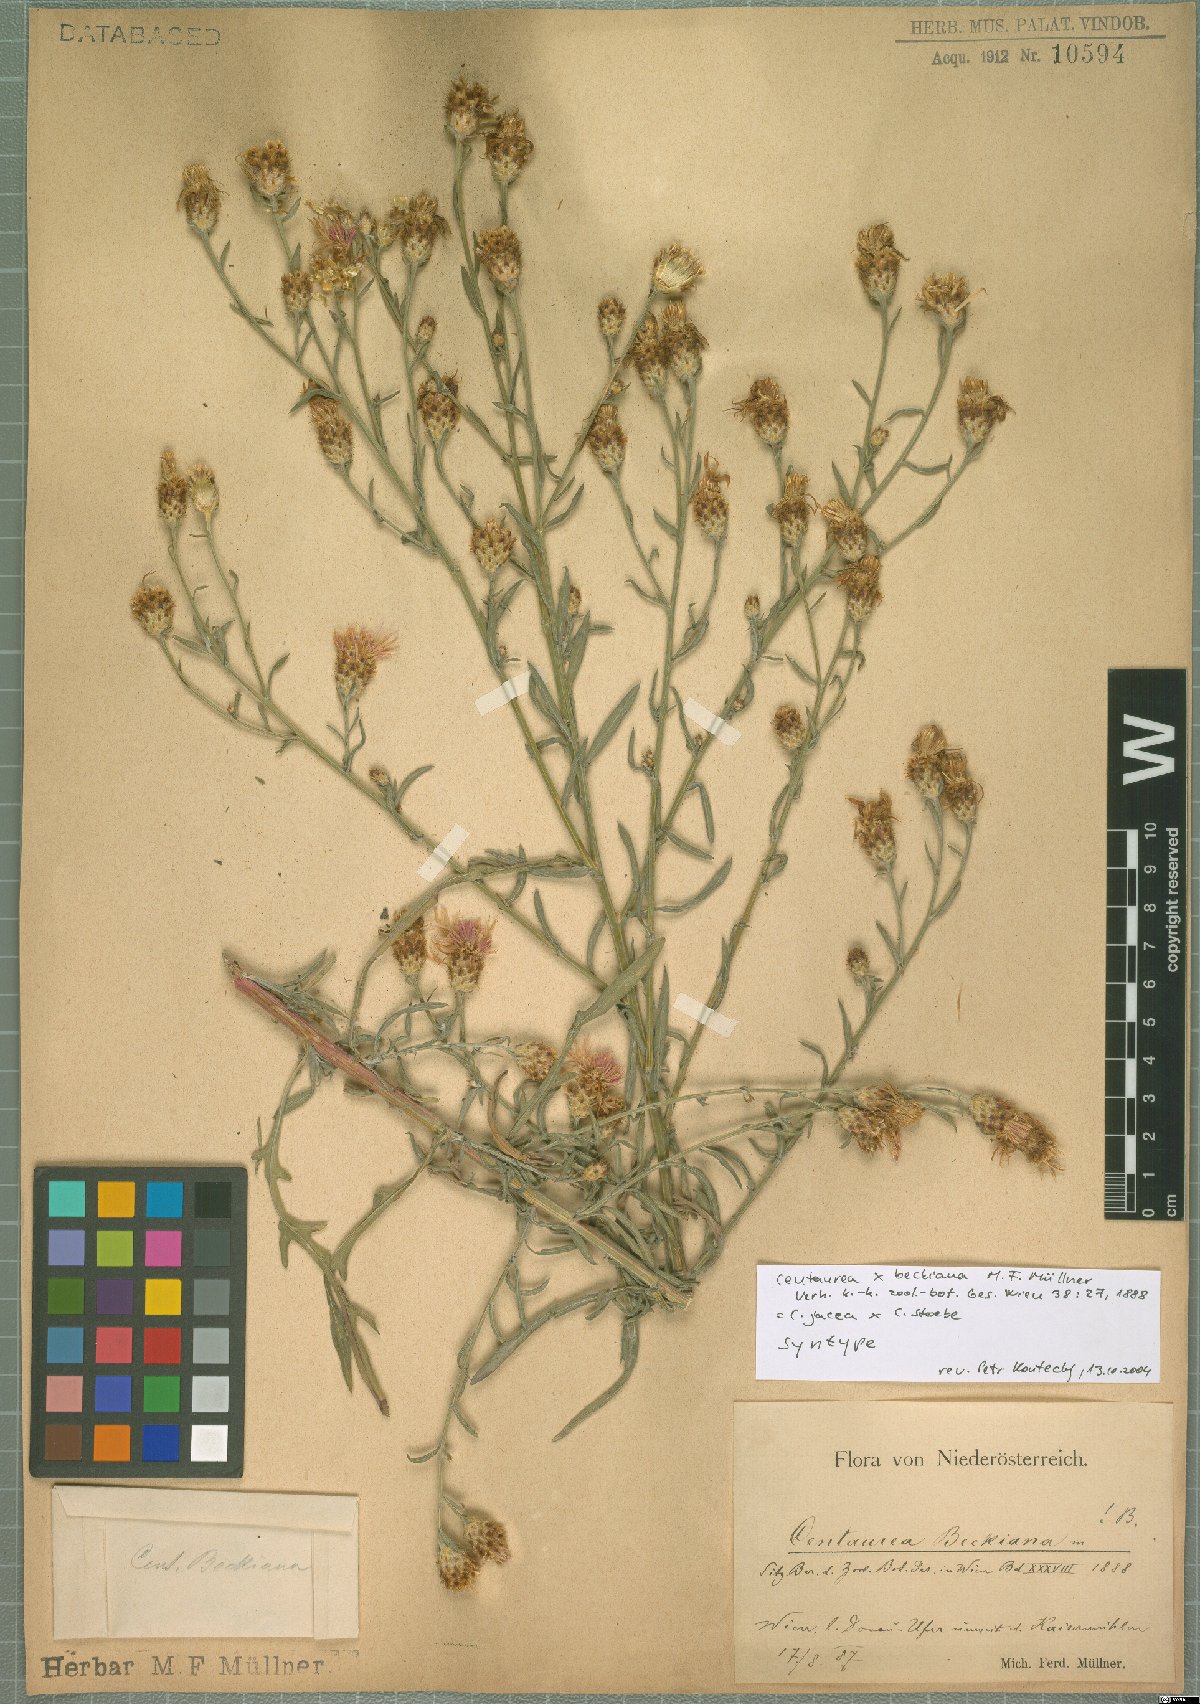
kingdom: Plantae
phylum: Tracheophyta
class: Magnoliopsida
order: Asterales
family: Asteraceae
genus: Centaurea
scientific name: Centaurea beckiana
